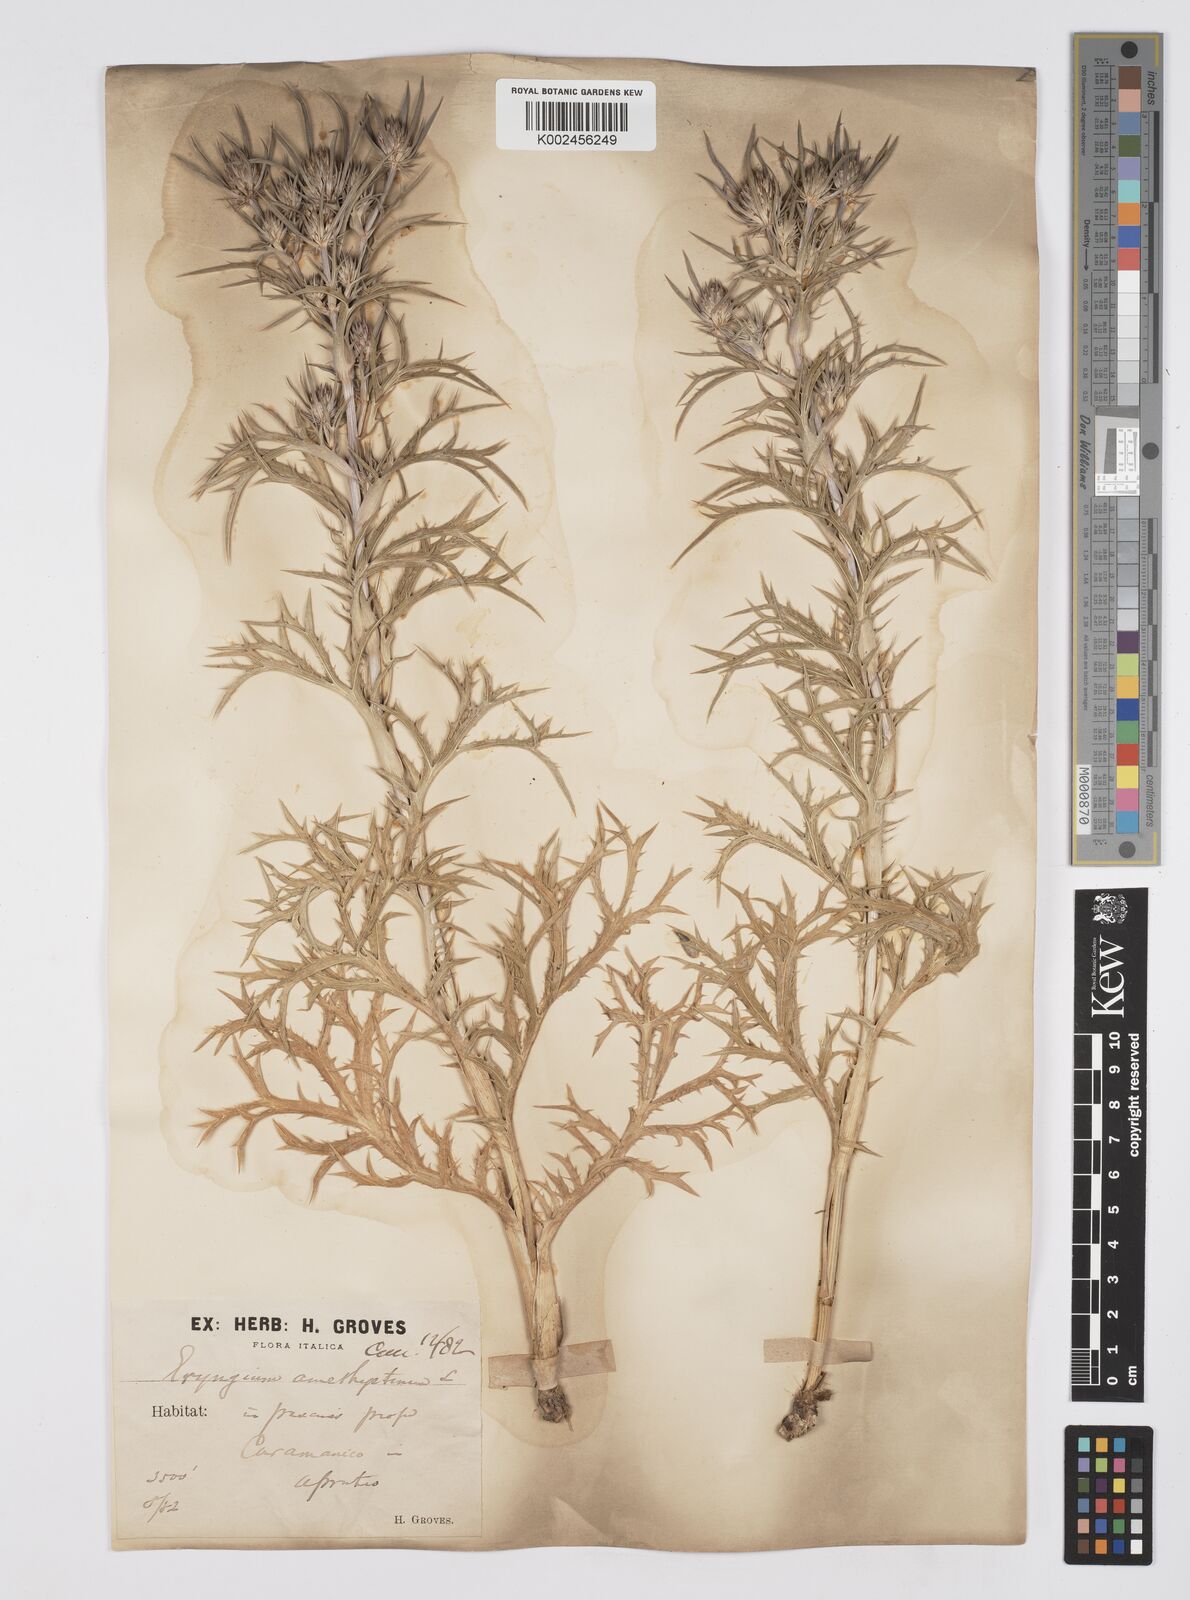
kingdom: Plantae
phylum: Tracheophyta
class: Magnoliopsida
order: Apiales
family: Apiaceae
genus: Eryngium
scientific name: Eryngium amethystinum
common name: Amethyst eryngo
